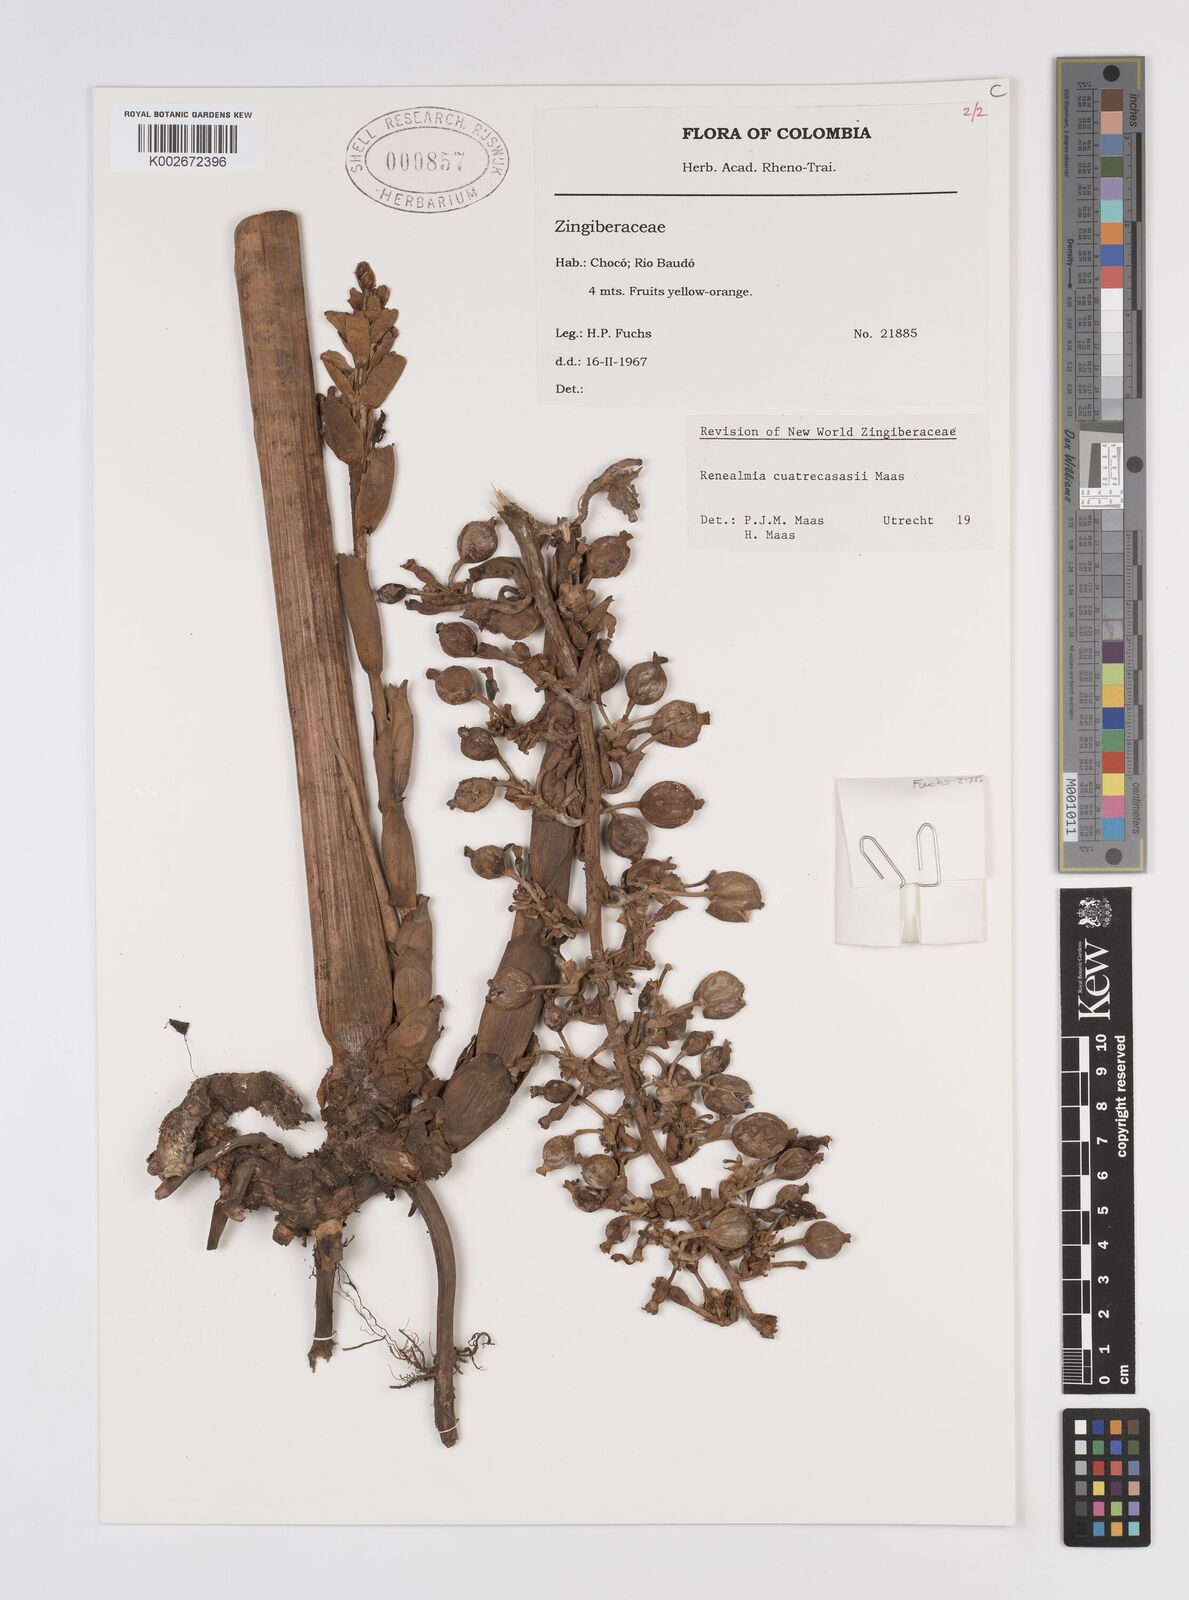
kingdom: Plantae
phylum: Tracheophyta
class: Liliopsida
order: Zingiberales
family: Zingiberaceae
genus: Renealmia
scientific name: Renealmia cuatrecasasii
